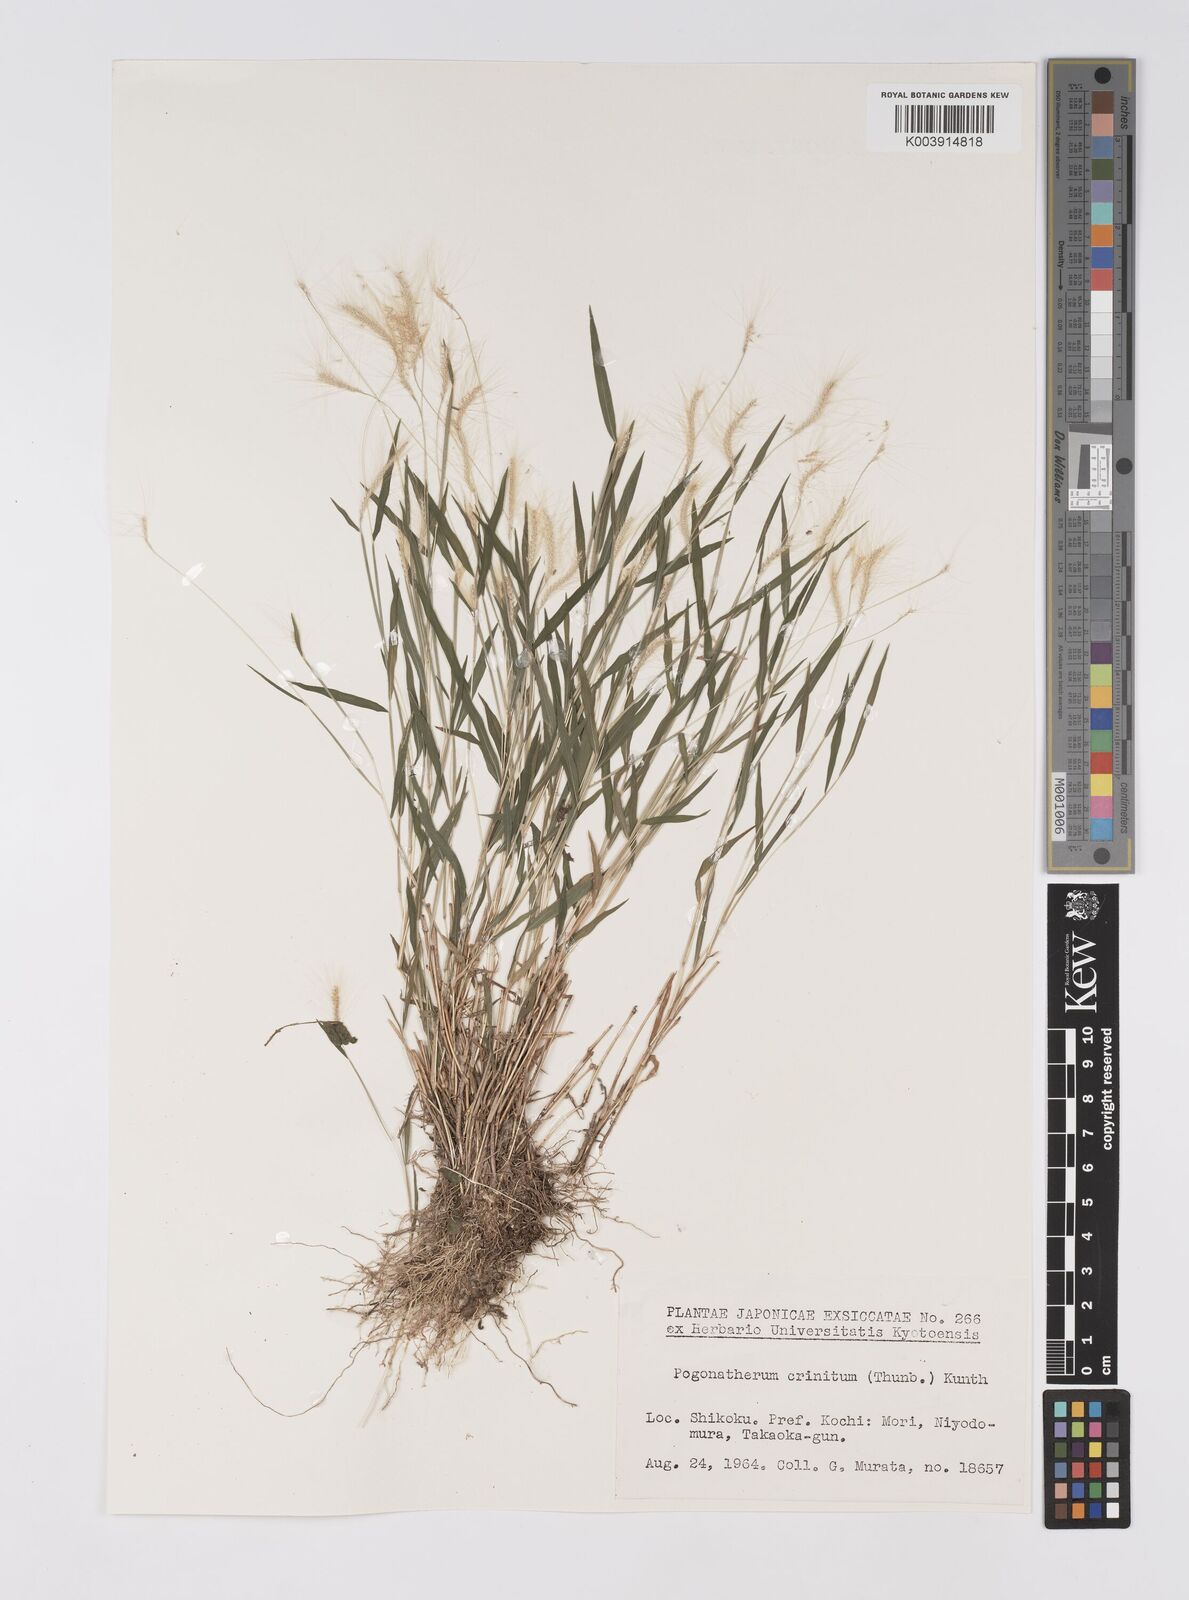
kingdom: Plantae
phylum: Tracheophyta
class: Liliopsida
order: Poales
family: Poaceae
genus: Pogonatherum
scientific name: Pogonatherum crinitum
